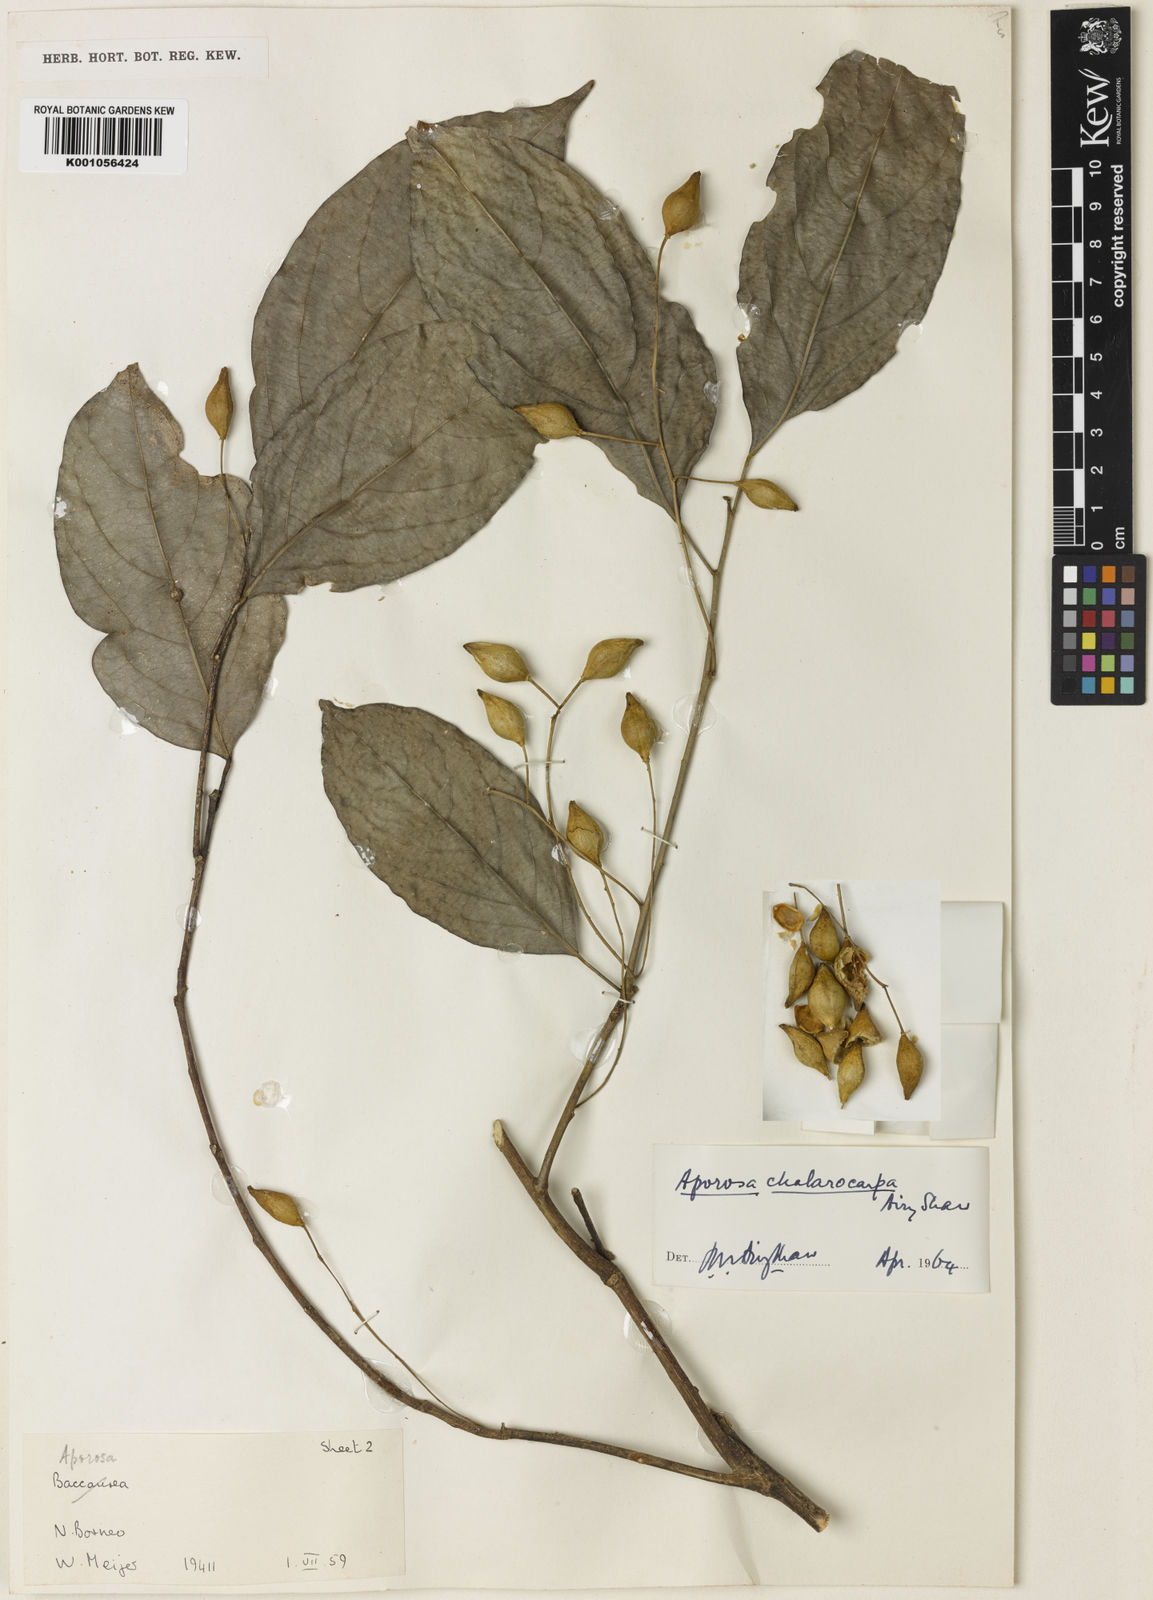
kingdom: Plantae
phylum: Tracheophyta
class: Magnoliopsida
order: Malpighiales
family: Phyllanthaceae
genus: Aporosa
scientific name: Aporosa symplocoides
